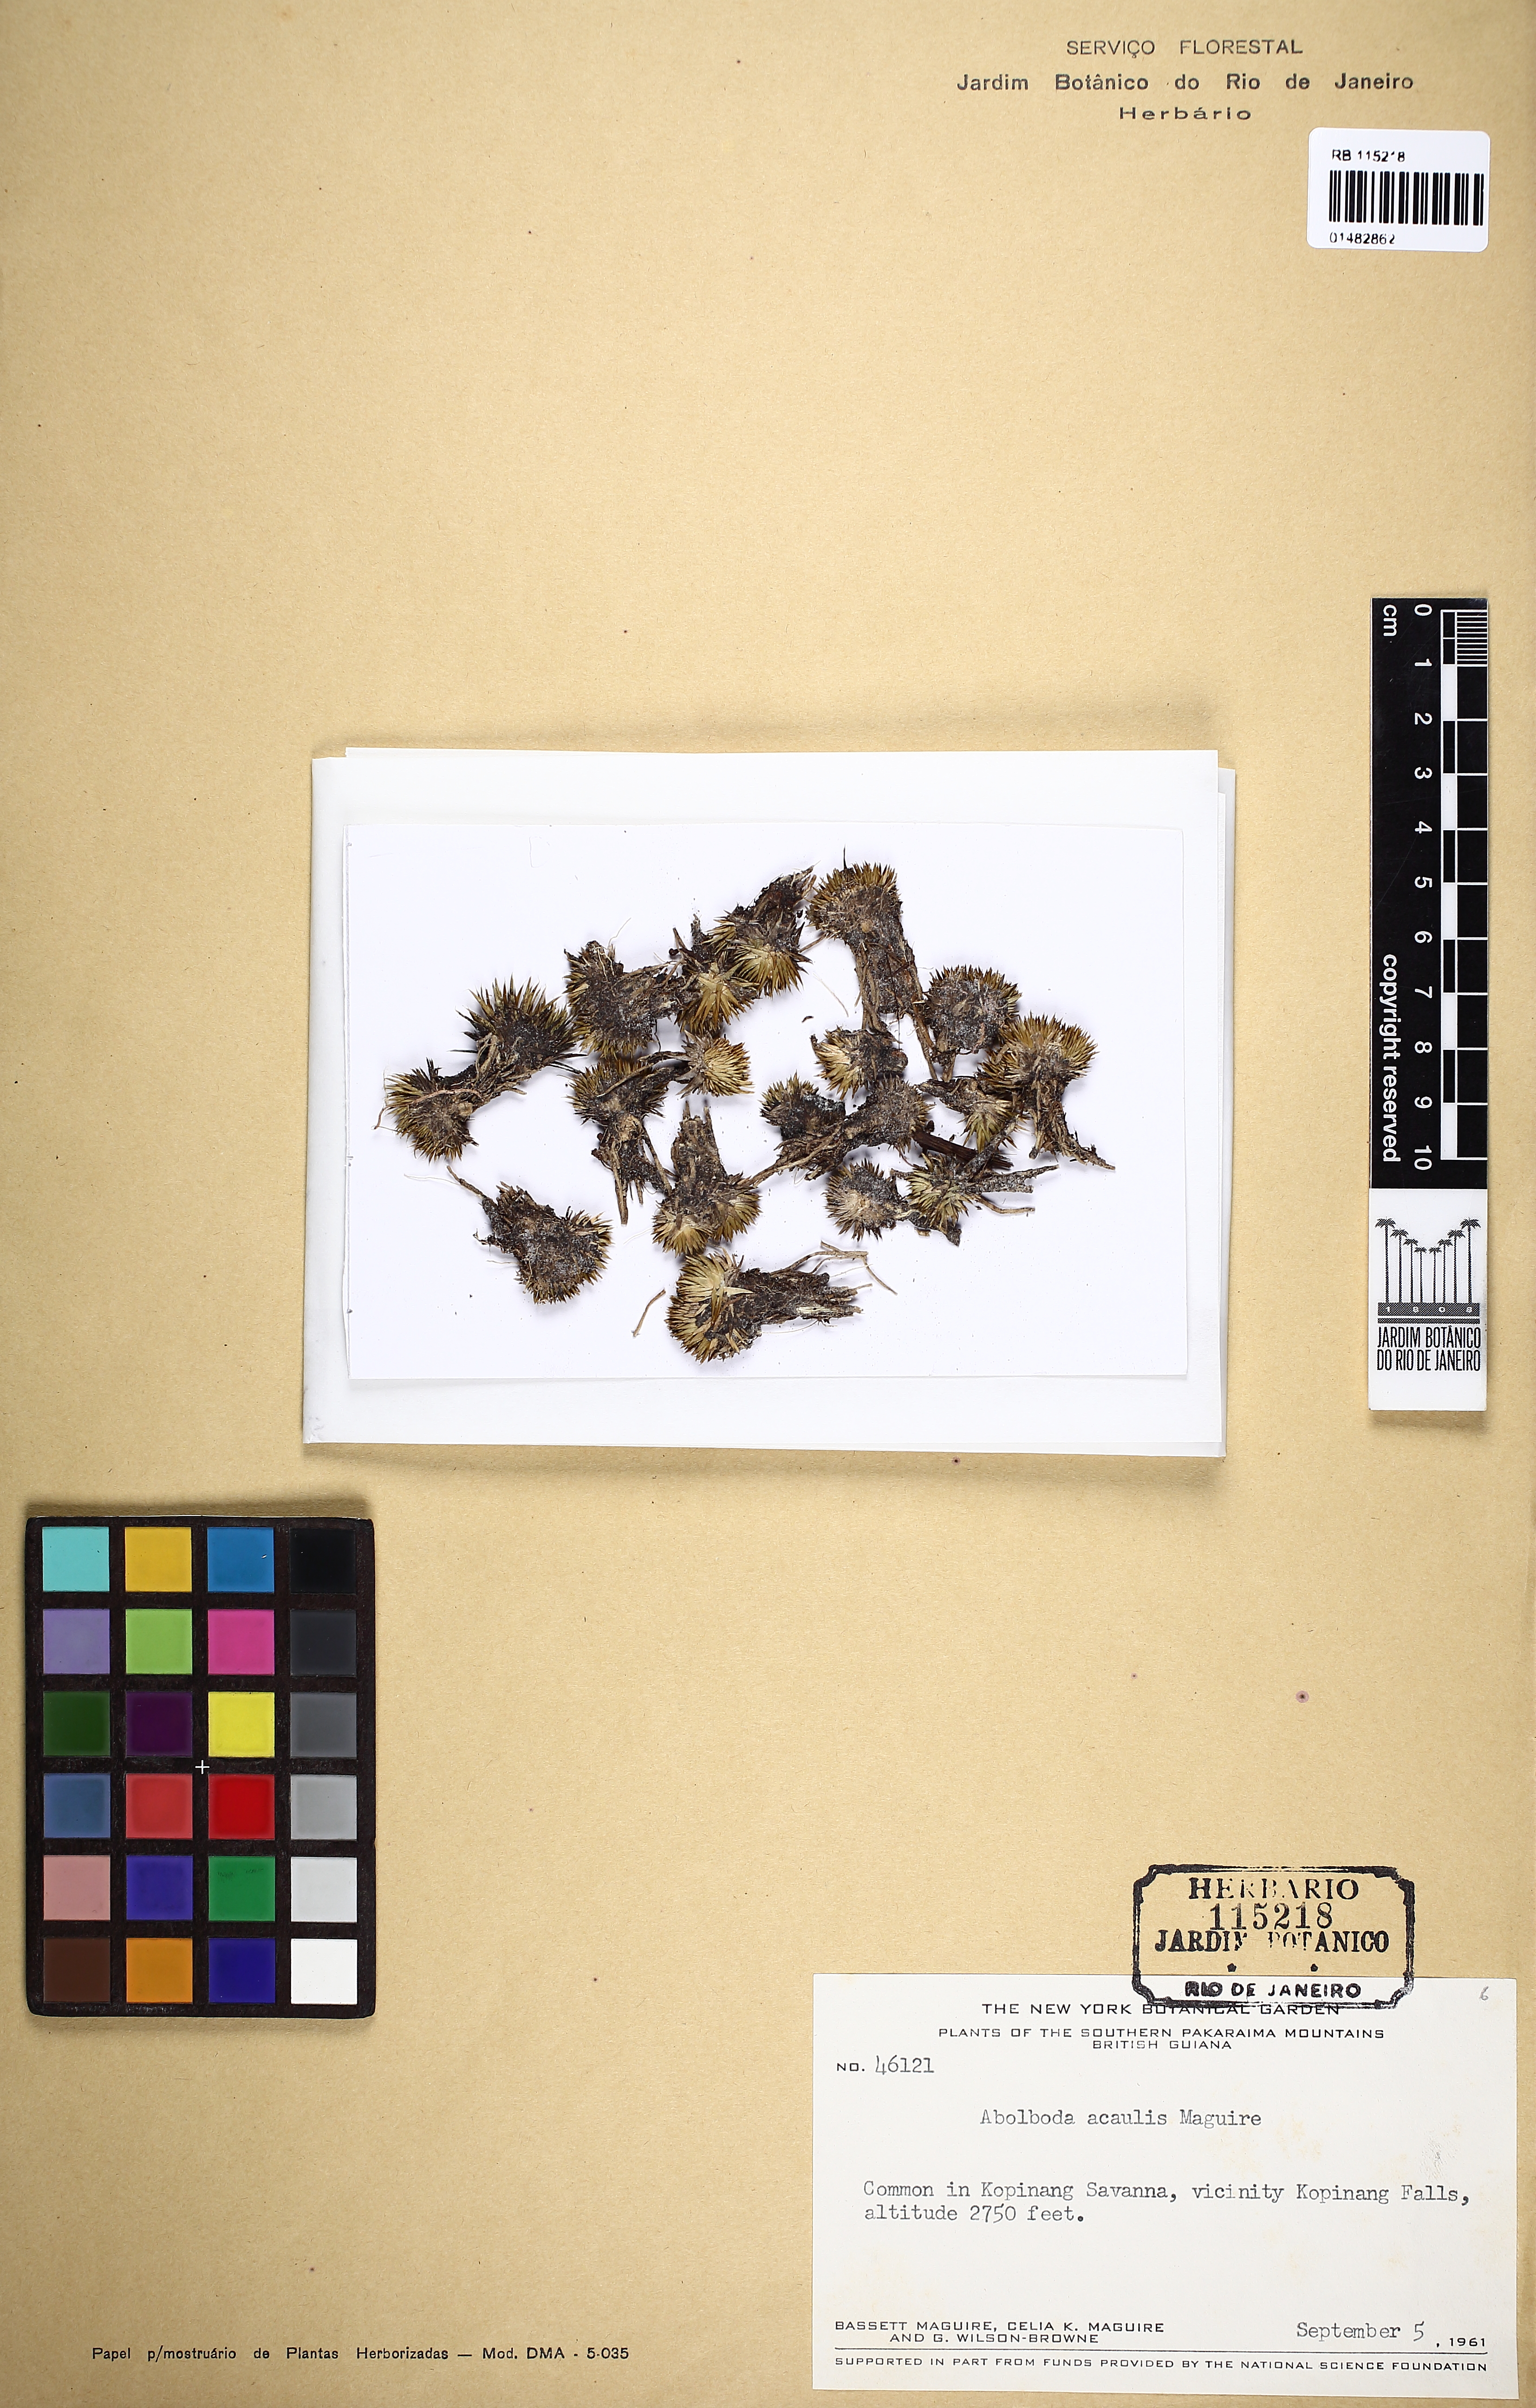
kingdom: Plantae
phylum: Tracheophyta
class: Liliopsida
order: Poales
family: Xyridaceae
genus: Abolboda
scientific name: Abolboda acaulis
